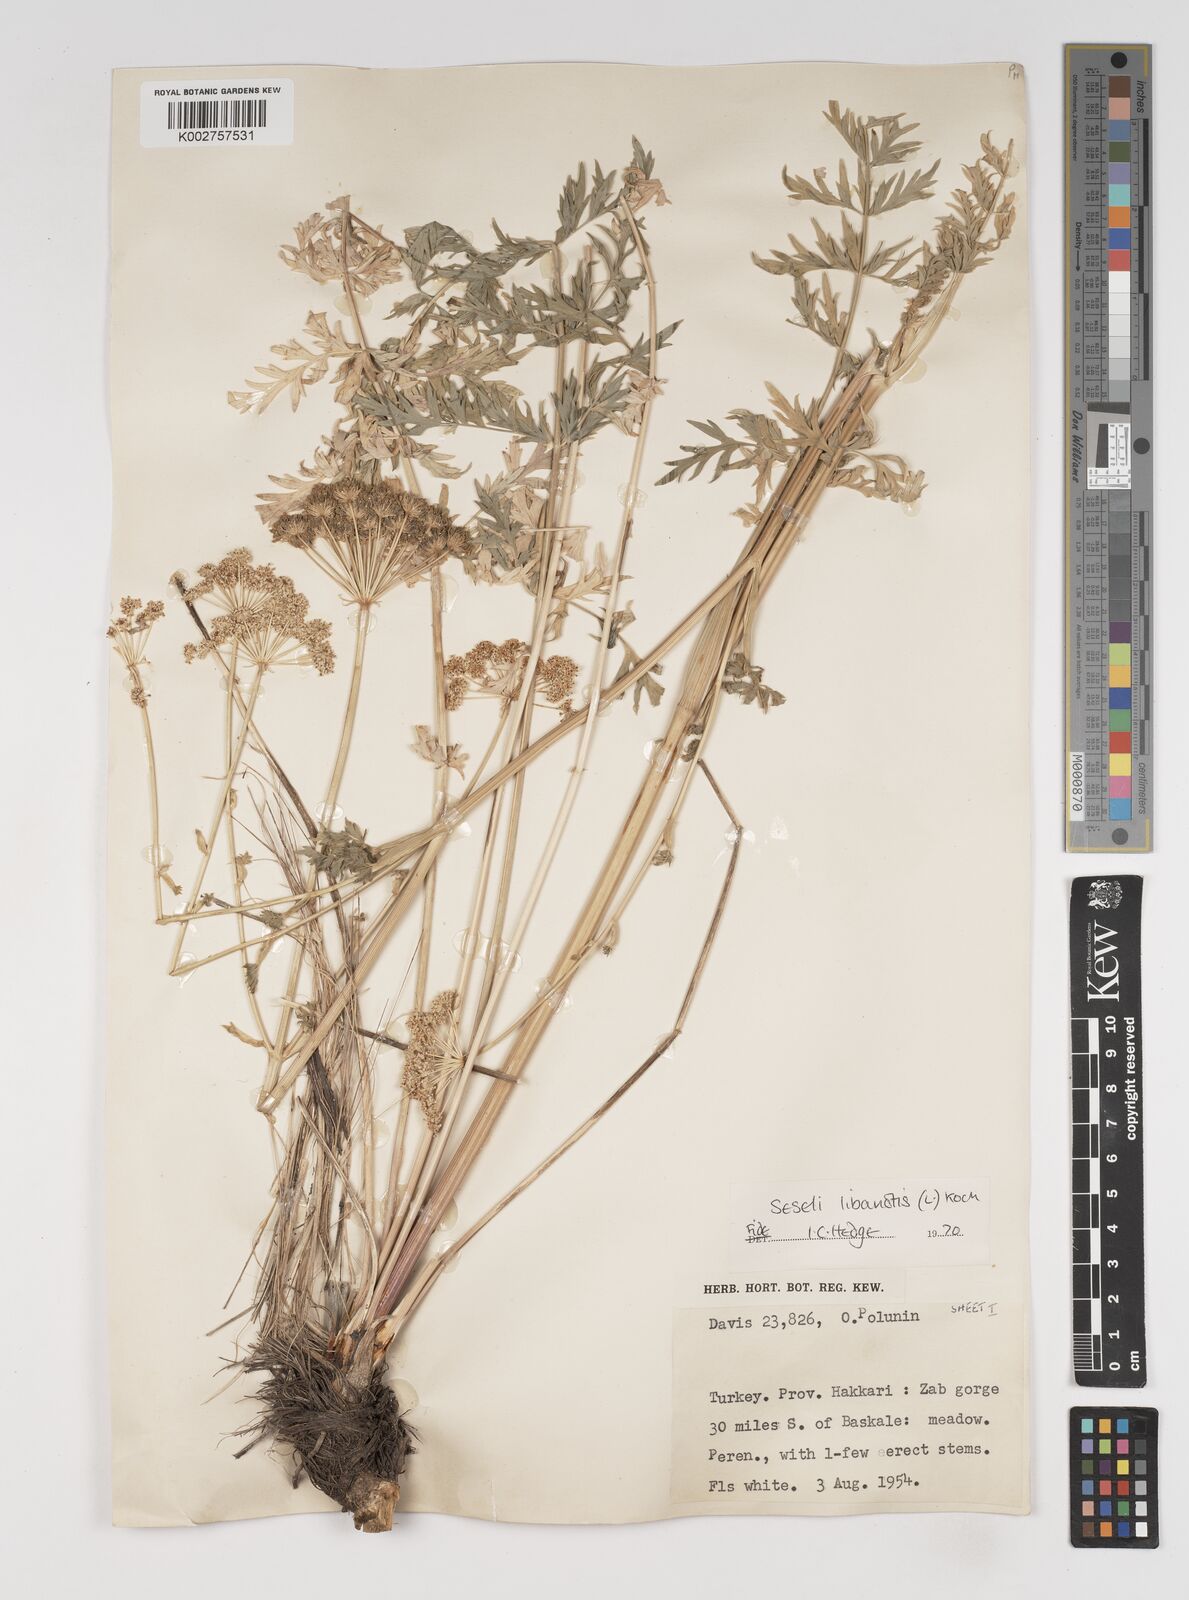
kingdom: Plantae
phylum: Tracheophyta
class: Magnoliopsida
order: Apiales
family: Apiaceae
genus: Seseli
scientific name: Seseli libanotis
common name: Mooncarrot
